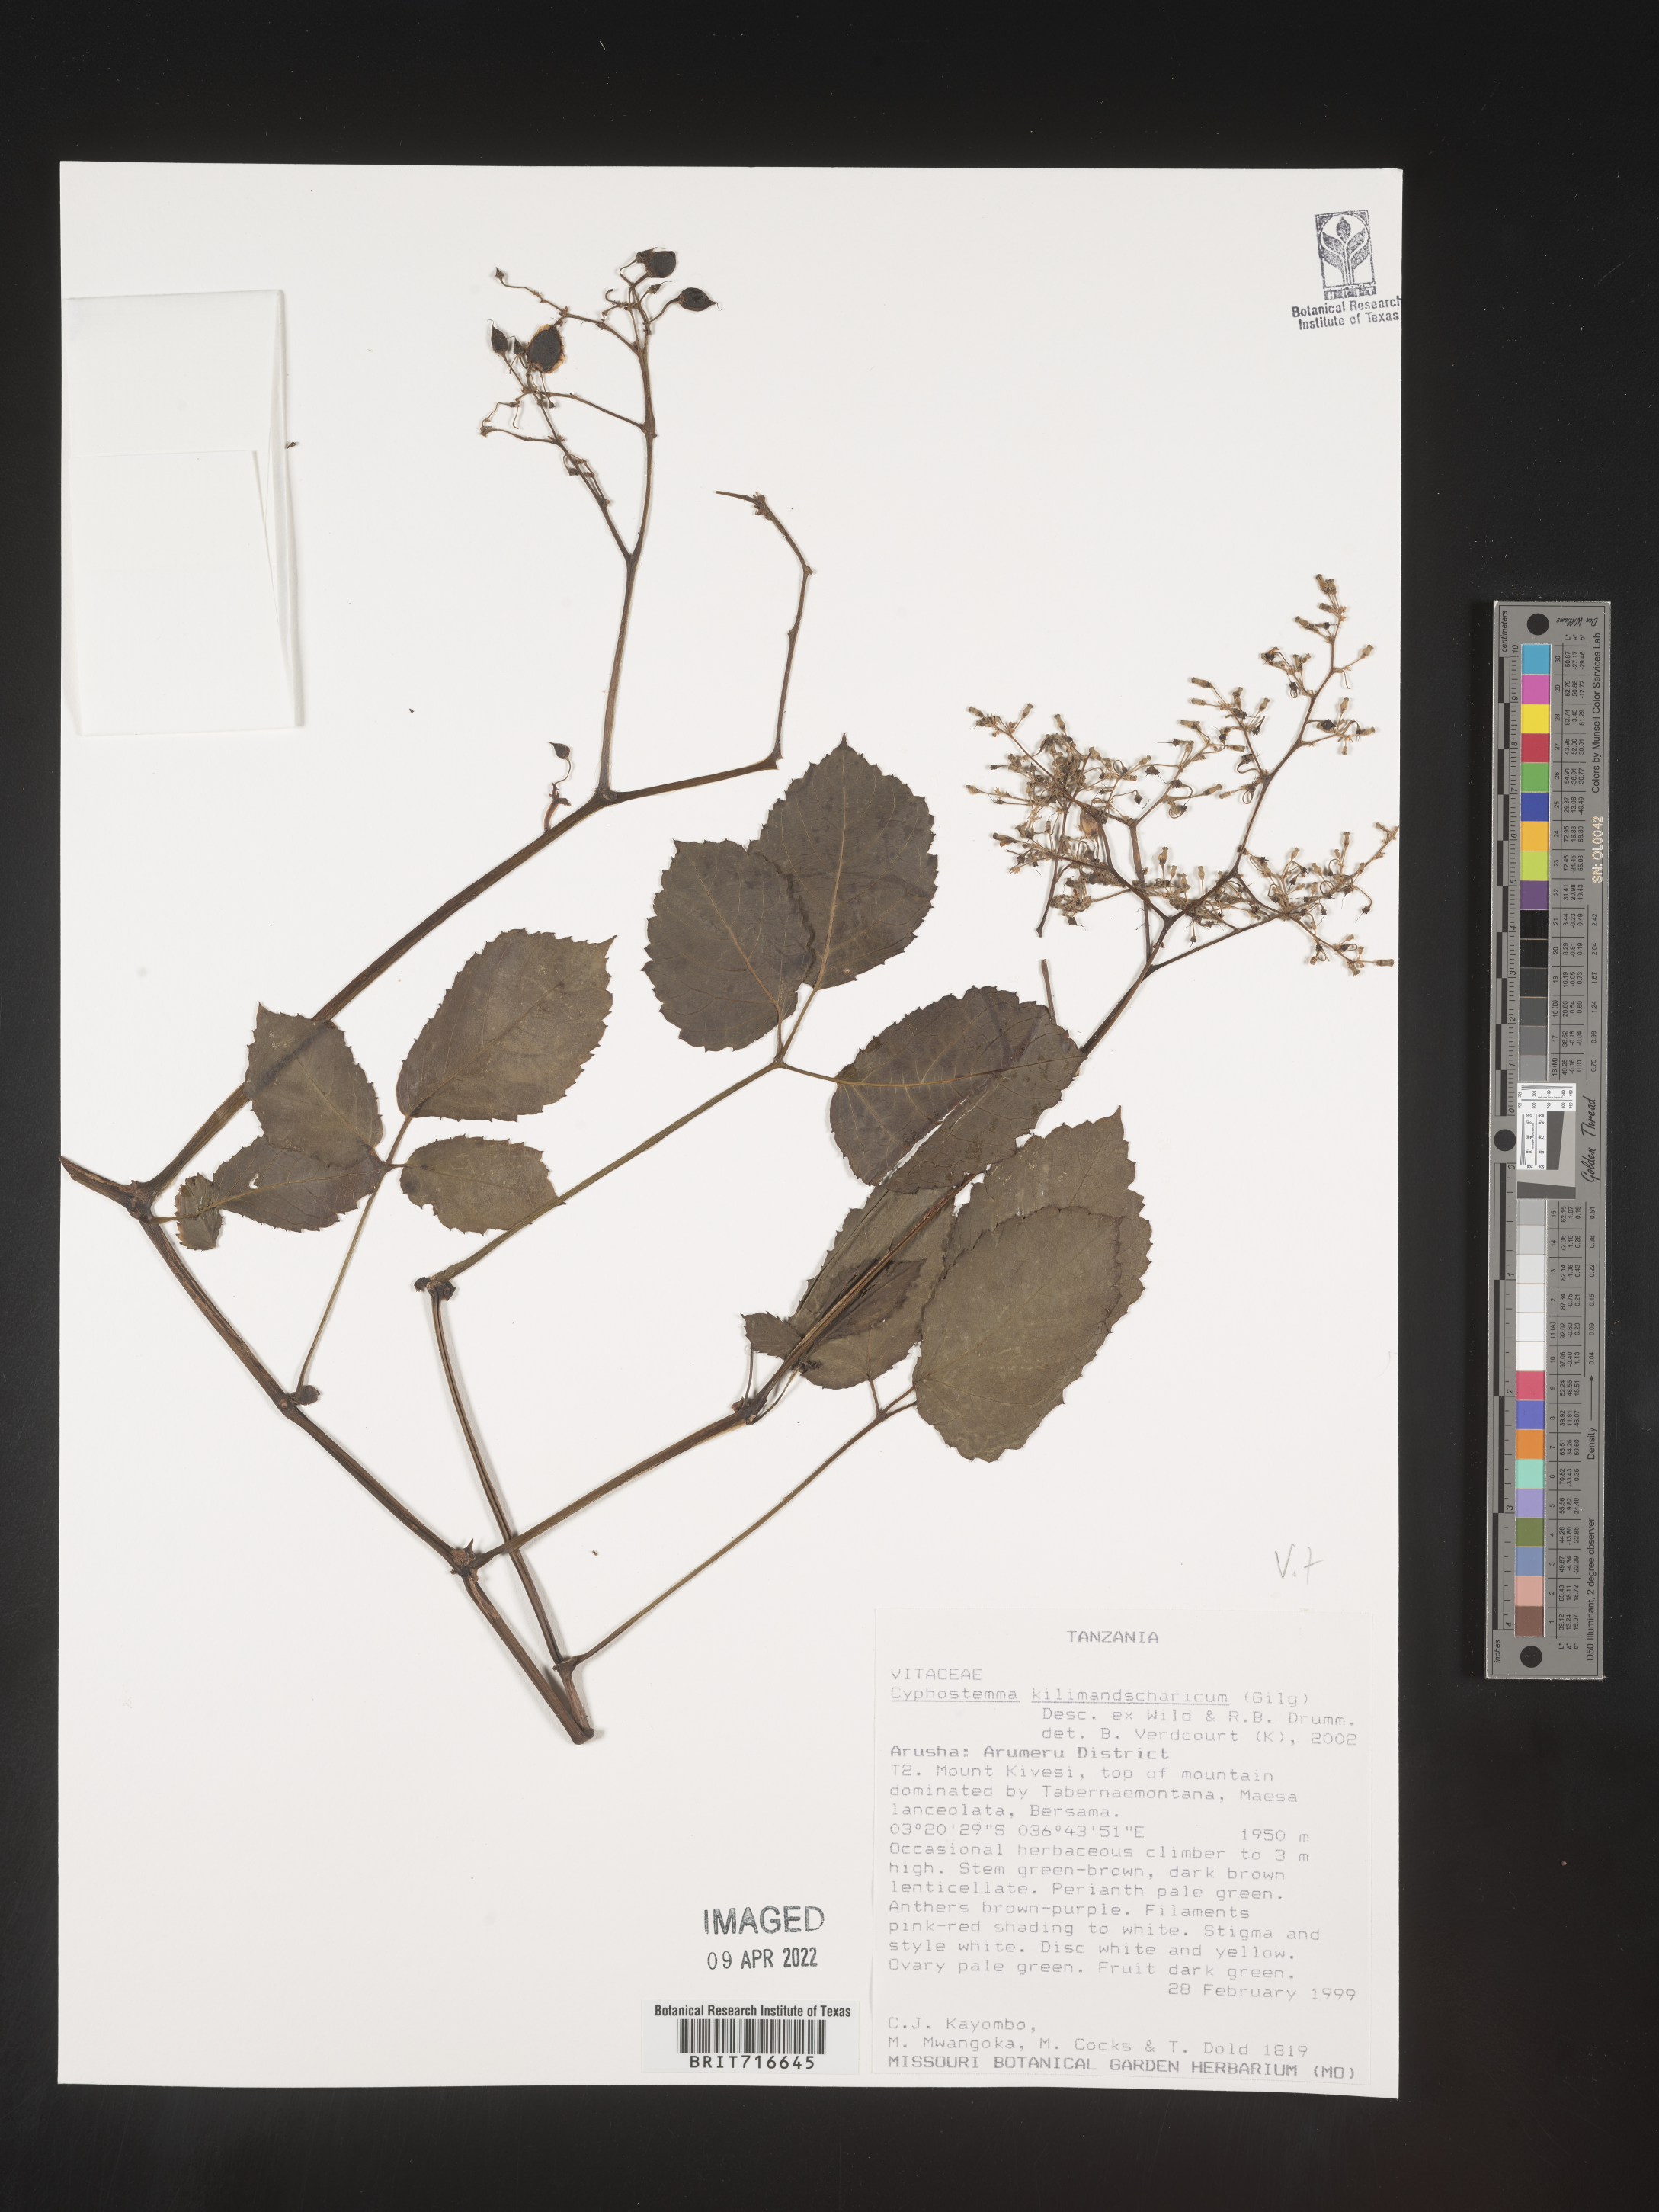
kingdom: Plantae
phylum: Tracheophyta
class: Magnoliopsida
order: Vitales
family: Vitaceae
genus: Cyphostemma
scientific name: Cyphostemma
